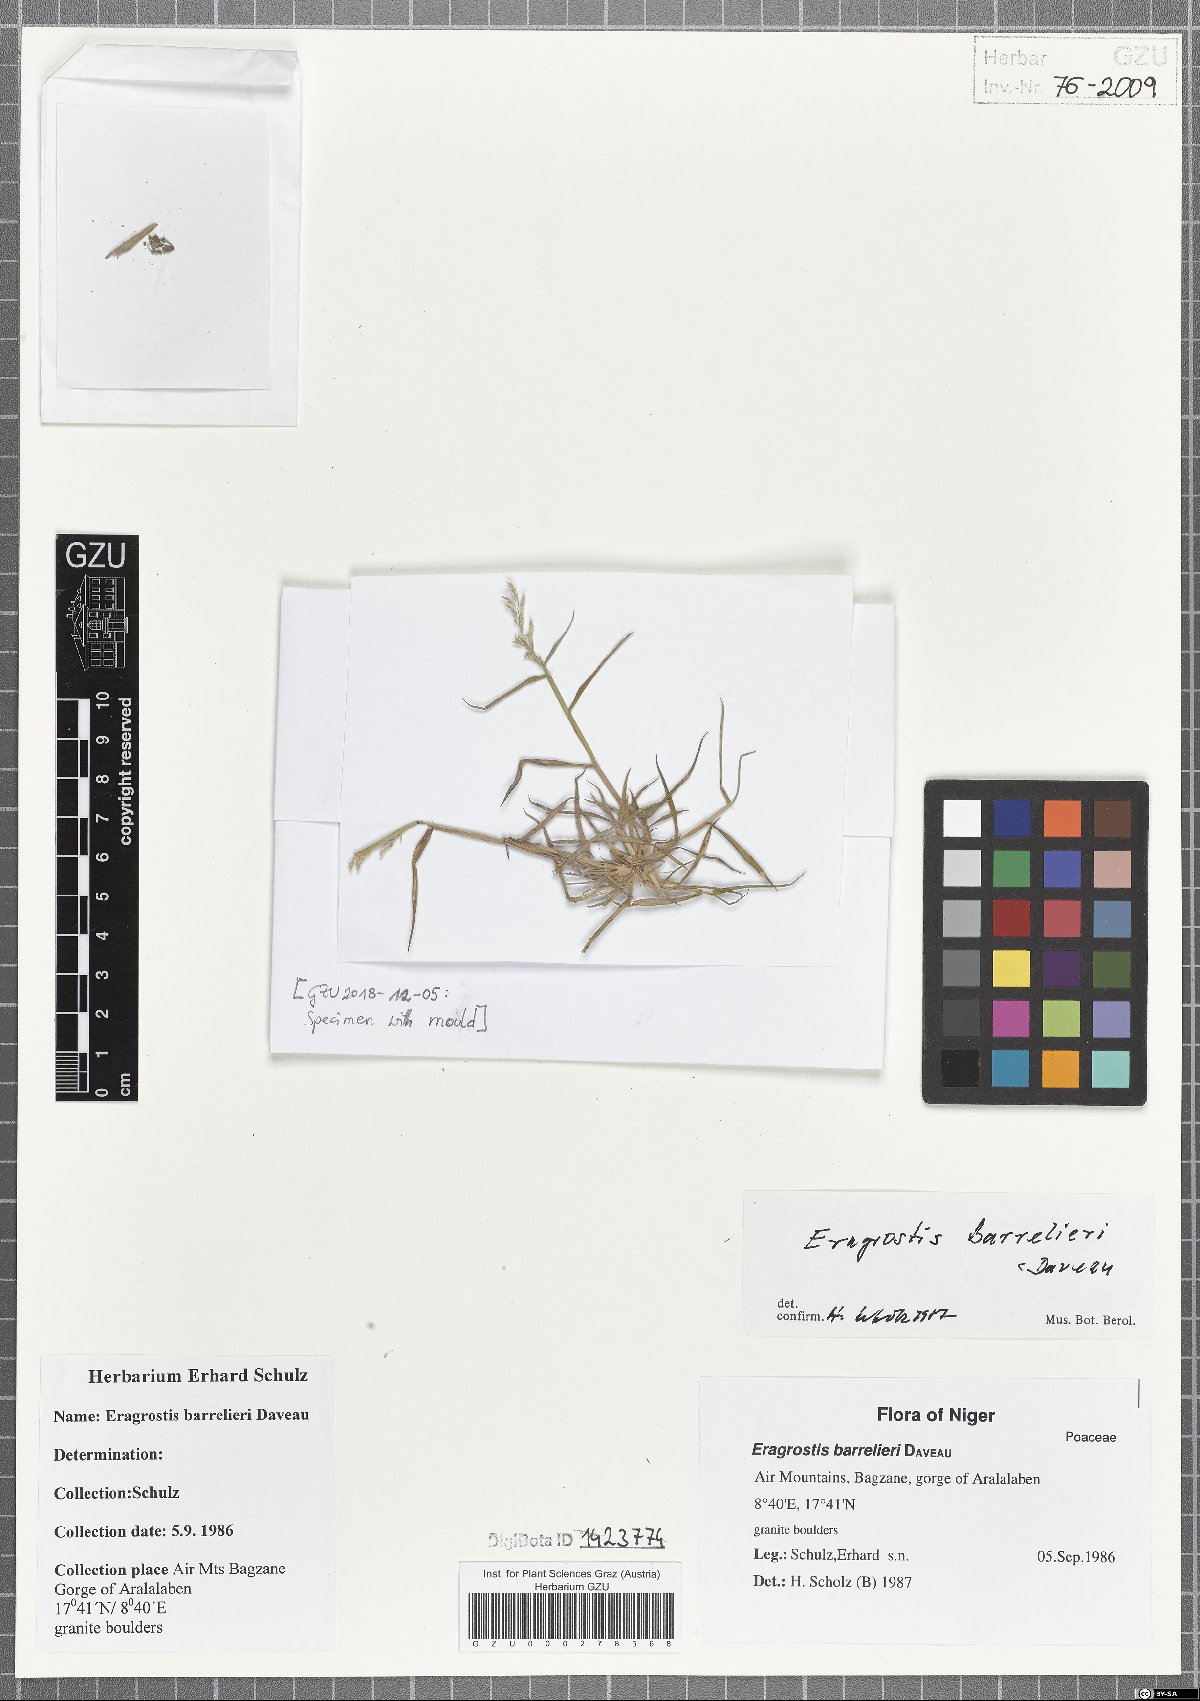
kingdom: Plantae
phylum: Tracheophyta
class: Liliopsida
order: Poales
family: Poaceae
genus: Eragrostis
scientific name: Eragrostis barrelieri
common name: Mediterranean lovegrass
